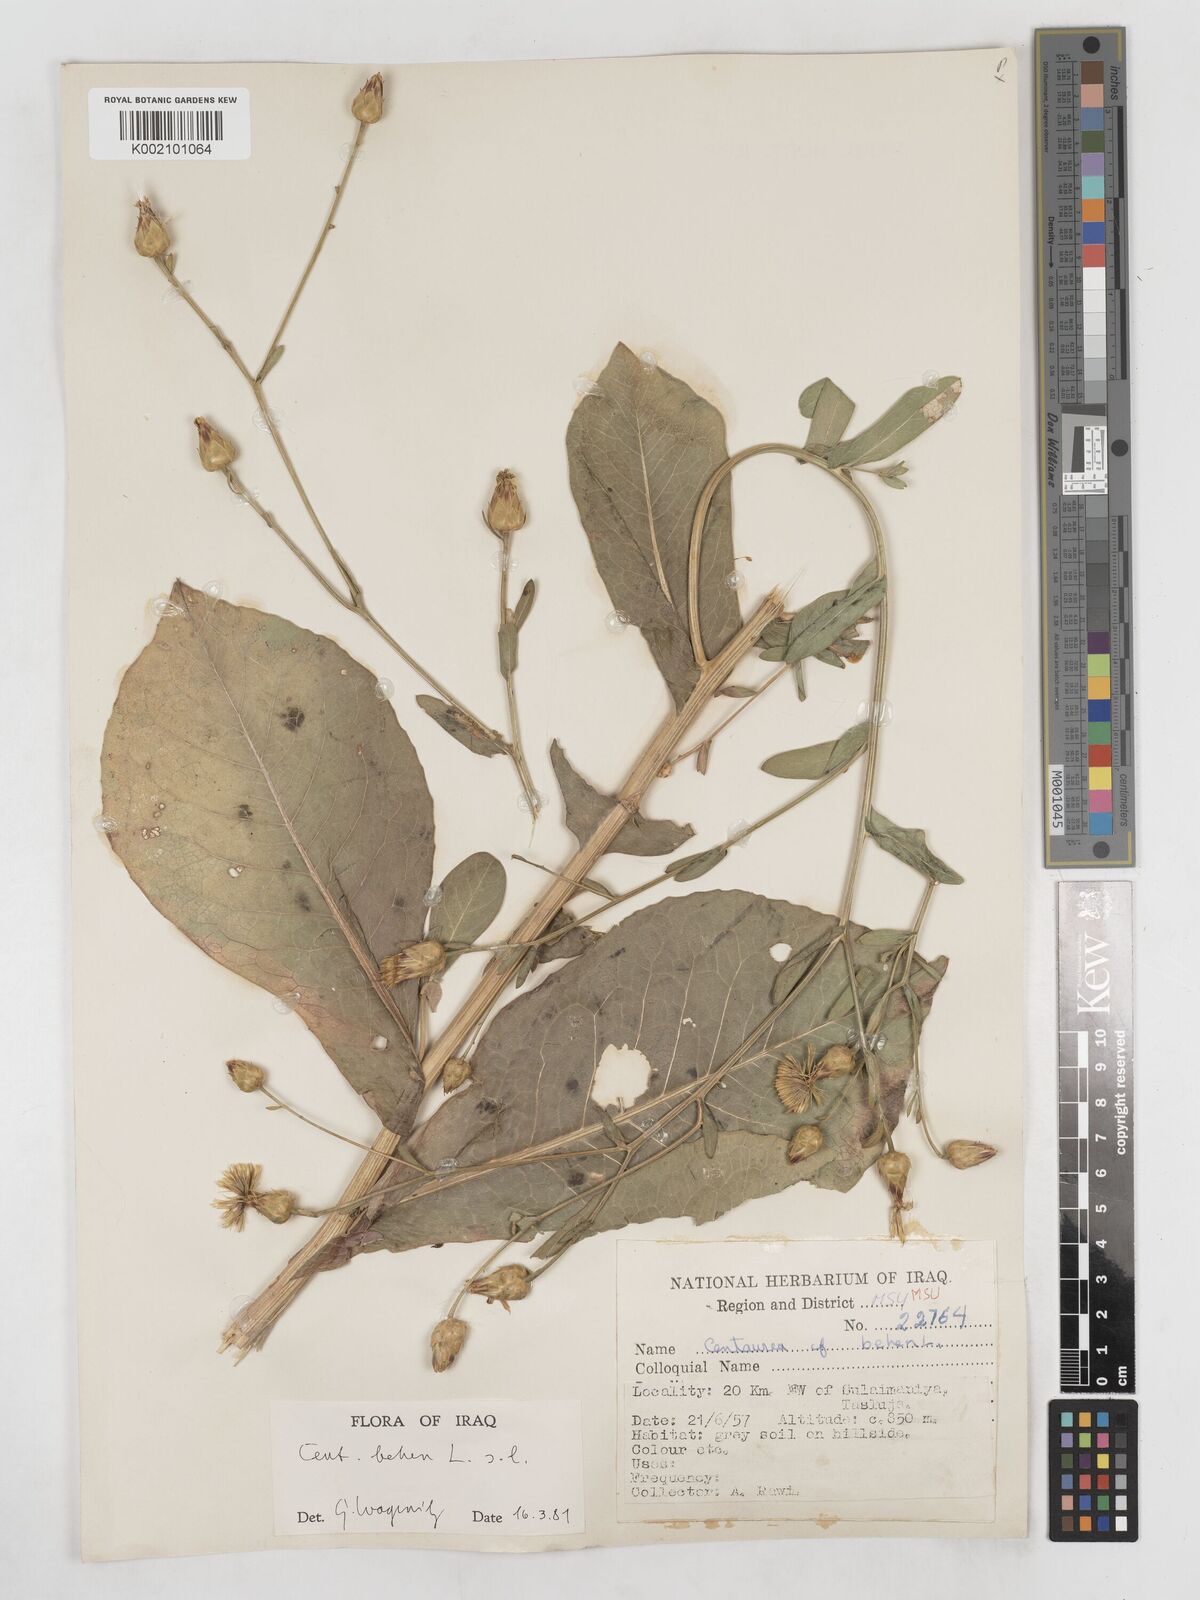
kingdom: Plantae
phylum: Tracheophyta
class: Magnoliopsida
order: Asterales
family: Asteraceae
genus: Centaurea
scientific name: Centaurea behen
